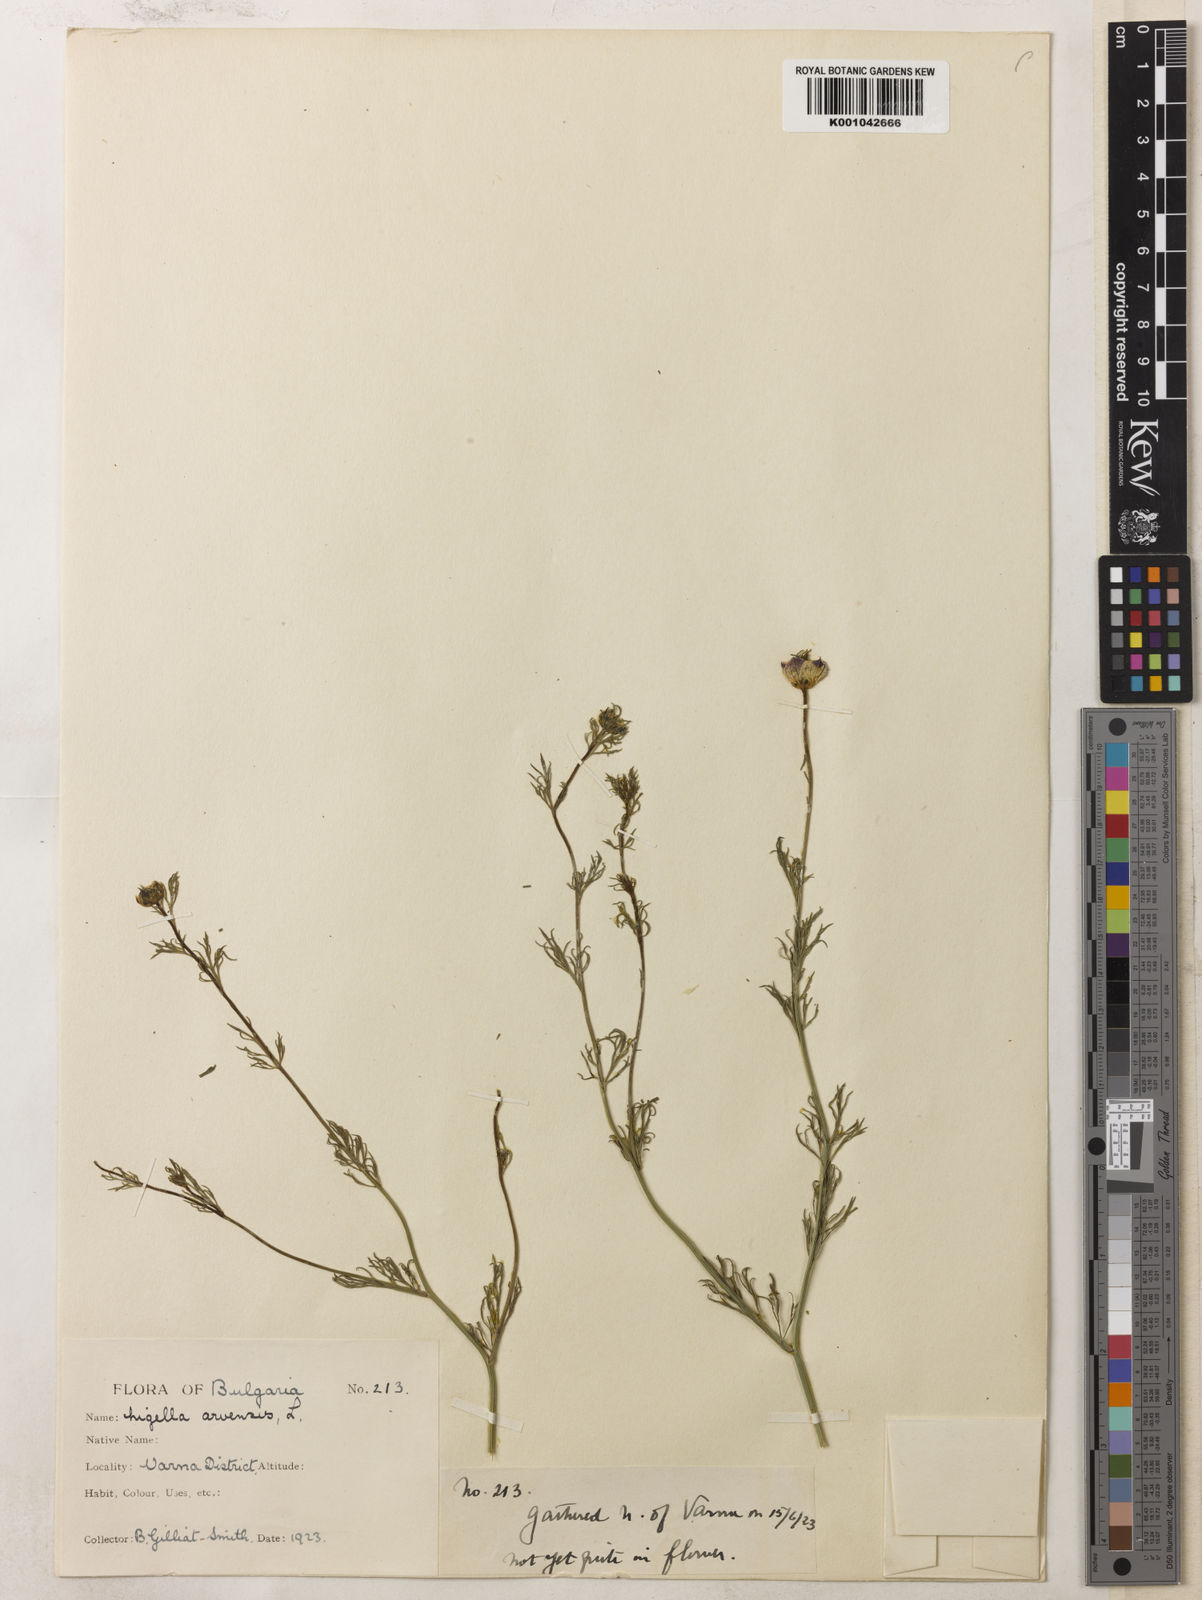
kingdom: Plantae
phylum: Tracheophyta
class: Magnoliopsida
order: Ranunculales
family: Ranunculaceae
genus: Nigella
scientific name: Nigella arvensis
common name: Wild fennel-flower
